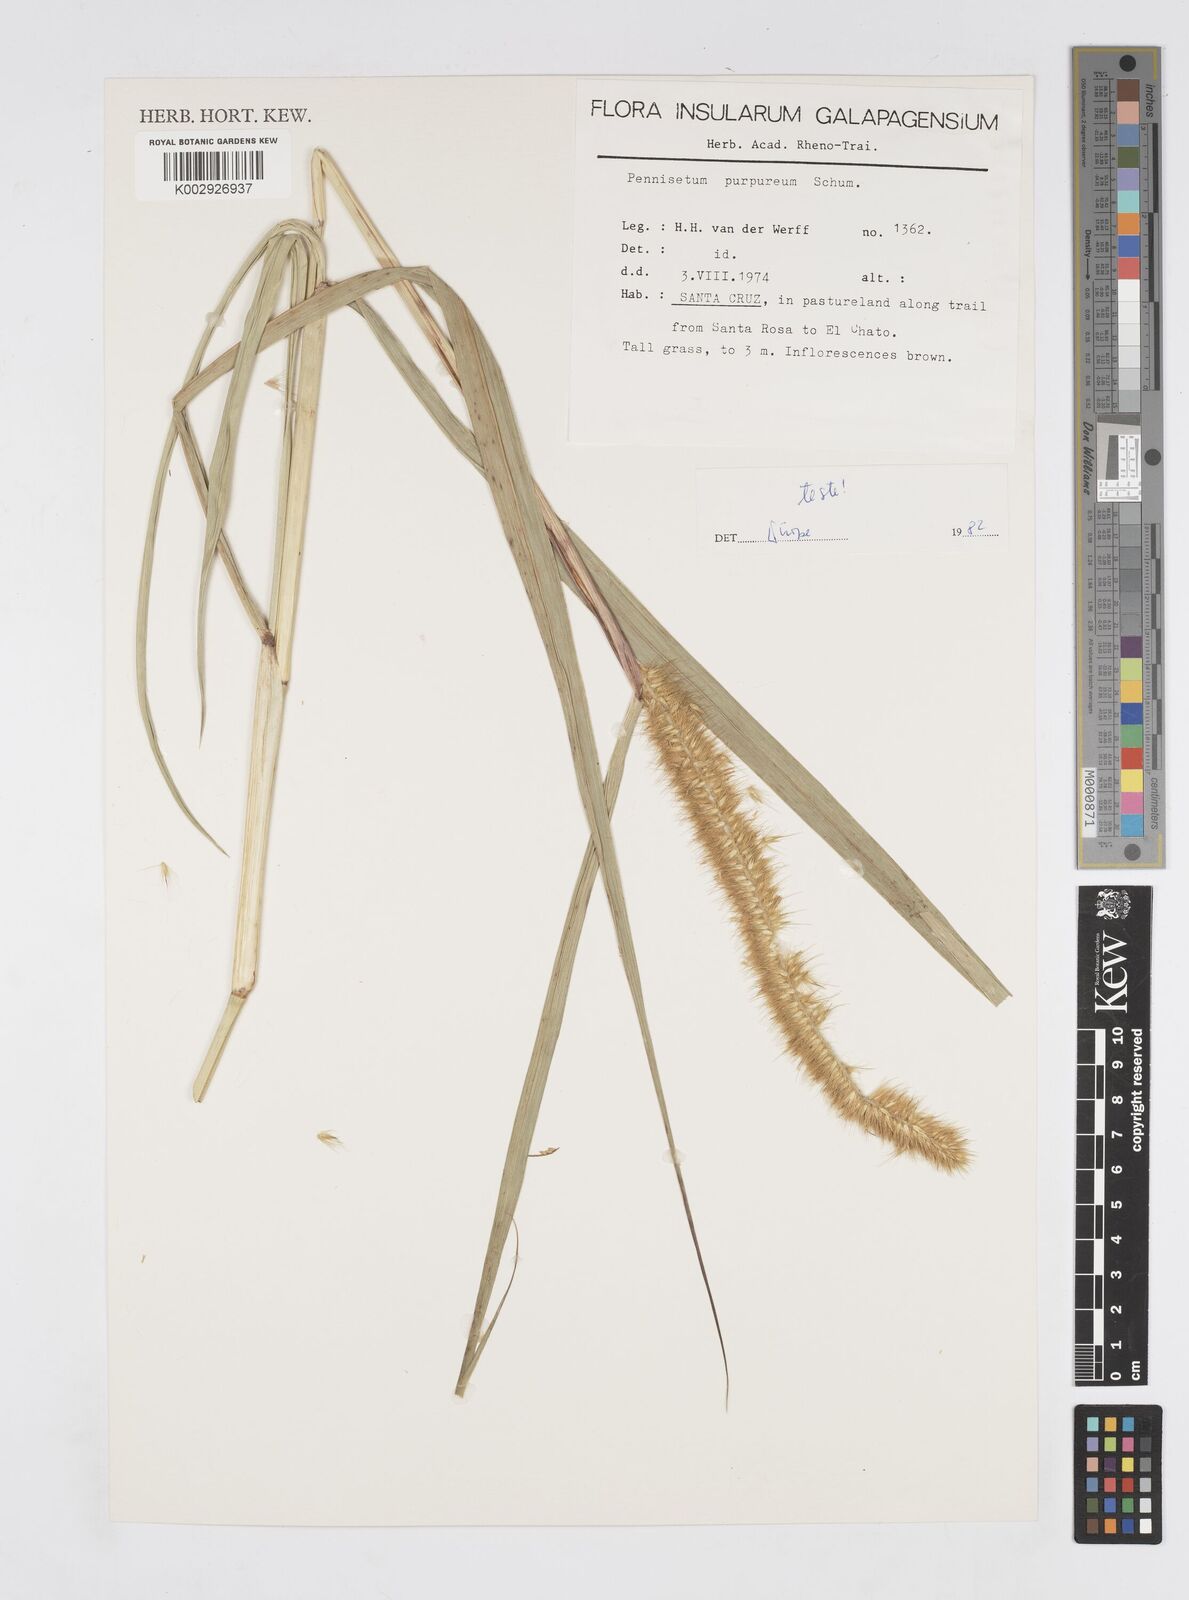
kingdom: Plantae
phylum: Tracheophyta
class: Liliopsida
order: Poales
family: Poaceae
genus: Cenchrus
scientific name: Cenchrus purpureus
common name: Elephant grass
